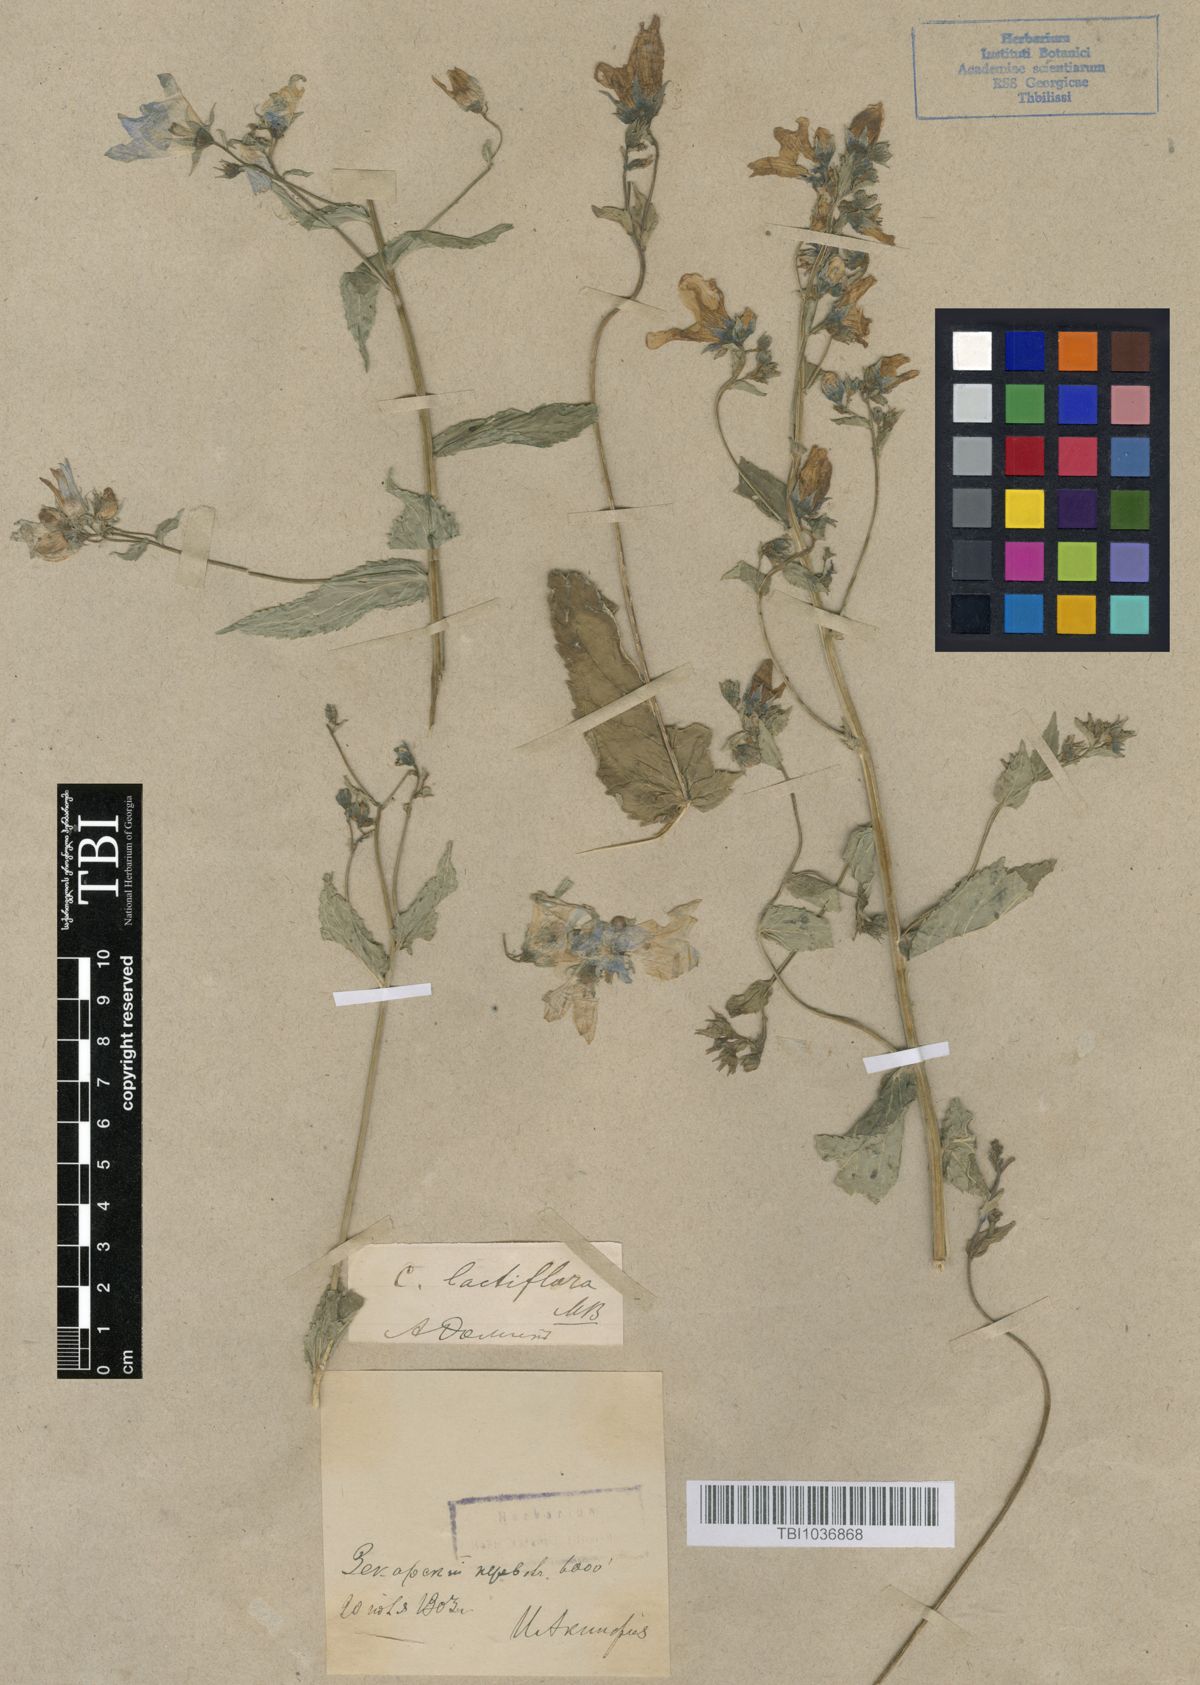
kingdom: Plantae
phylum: Tracheophyta
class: Magnoliopsida
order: Asterales
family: Campanulaceae
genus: Campanula
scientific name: Campanula lactiflora
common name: Milky bellflower
